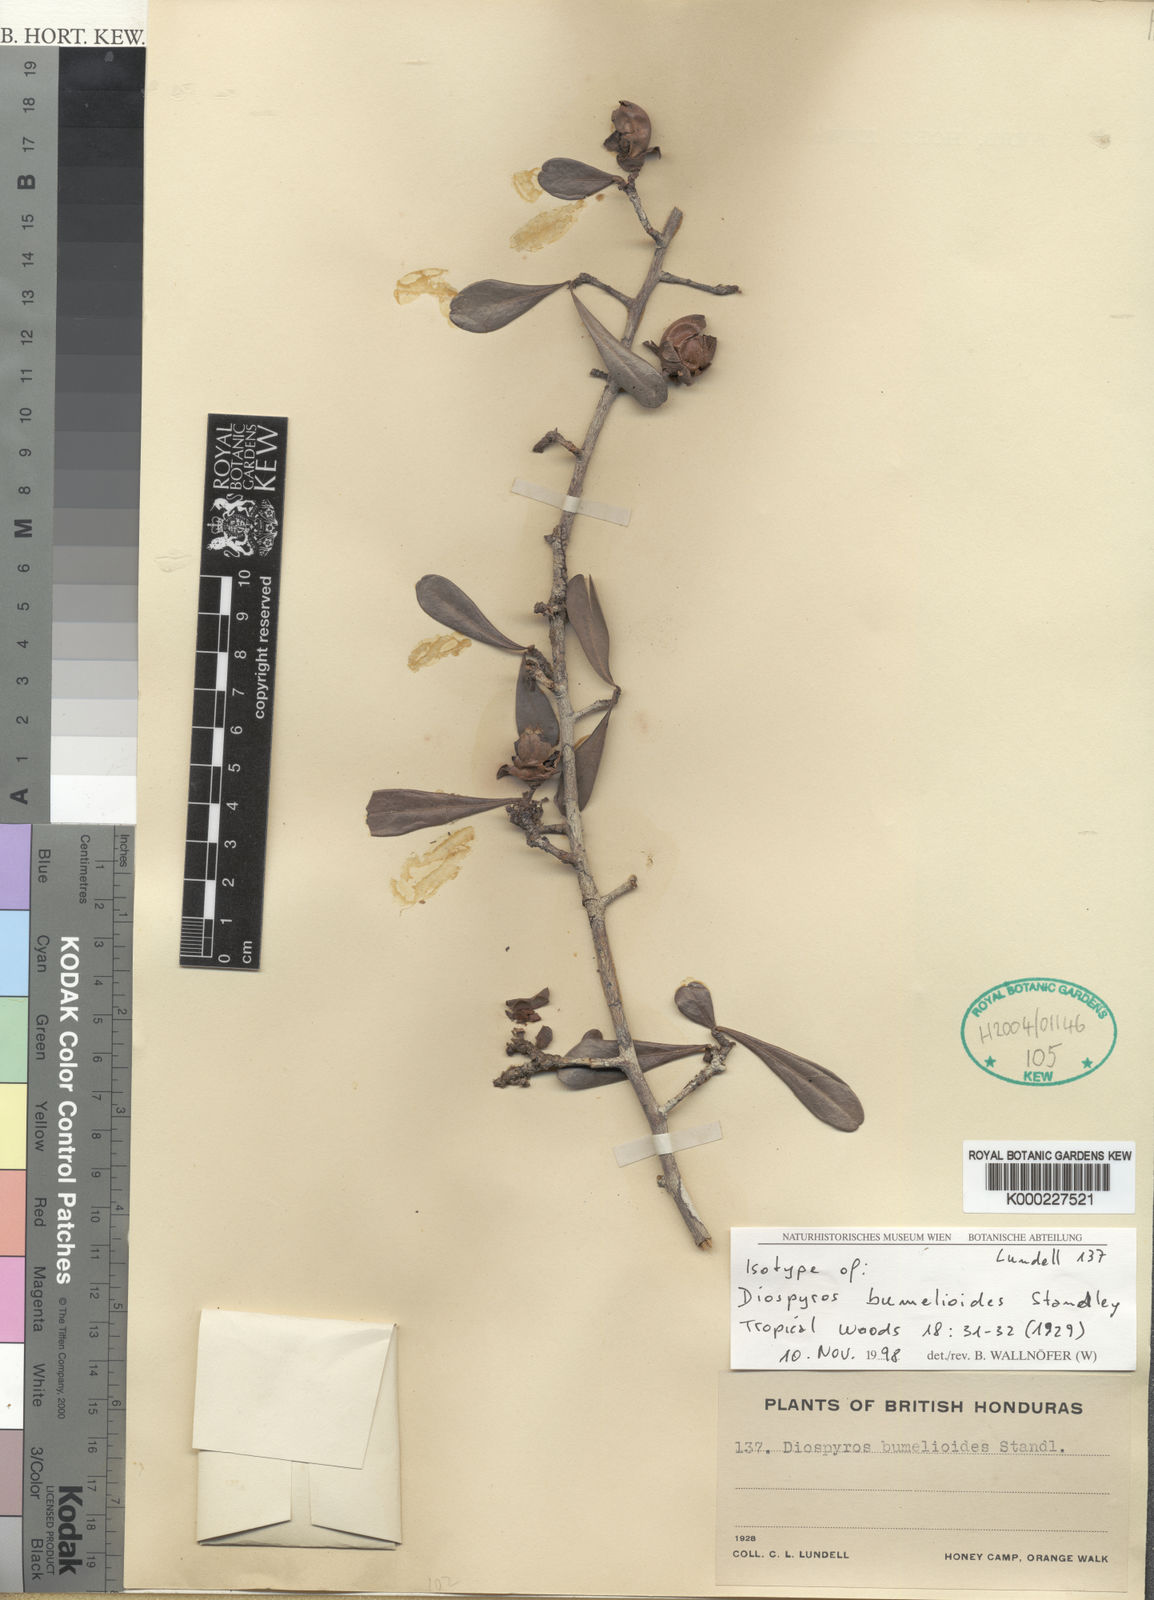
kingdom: Plantae
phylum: Tracheophyta
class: Magnoliopsida
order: Ericales
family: Ebenaceae
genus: Diospyros
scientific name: Diospyros bumelioides
